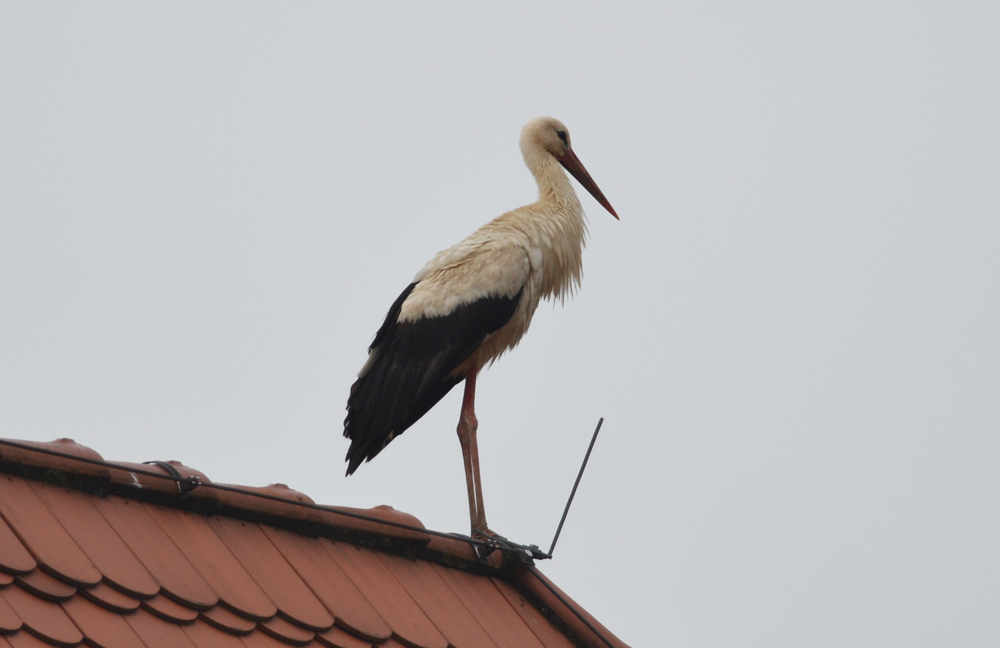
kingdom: Animalia
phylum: Chordata
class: Aves
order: Ciconiiformes
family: Ciconiidae
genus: Ciconia
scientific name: Ciconia ciconia
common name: White stork
